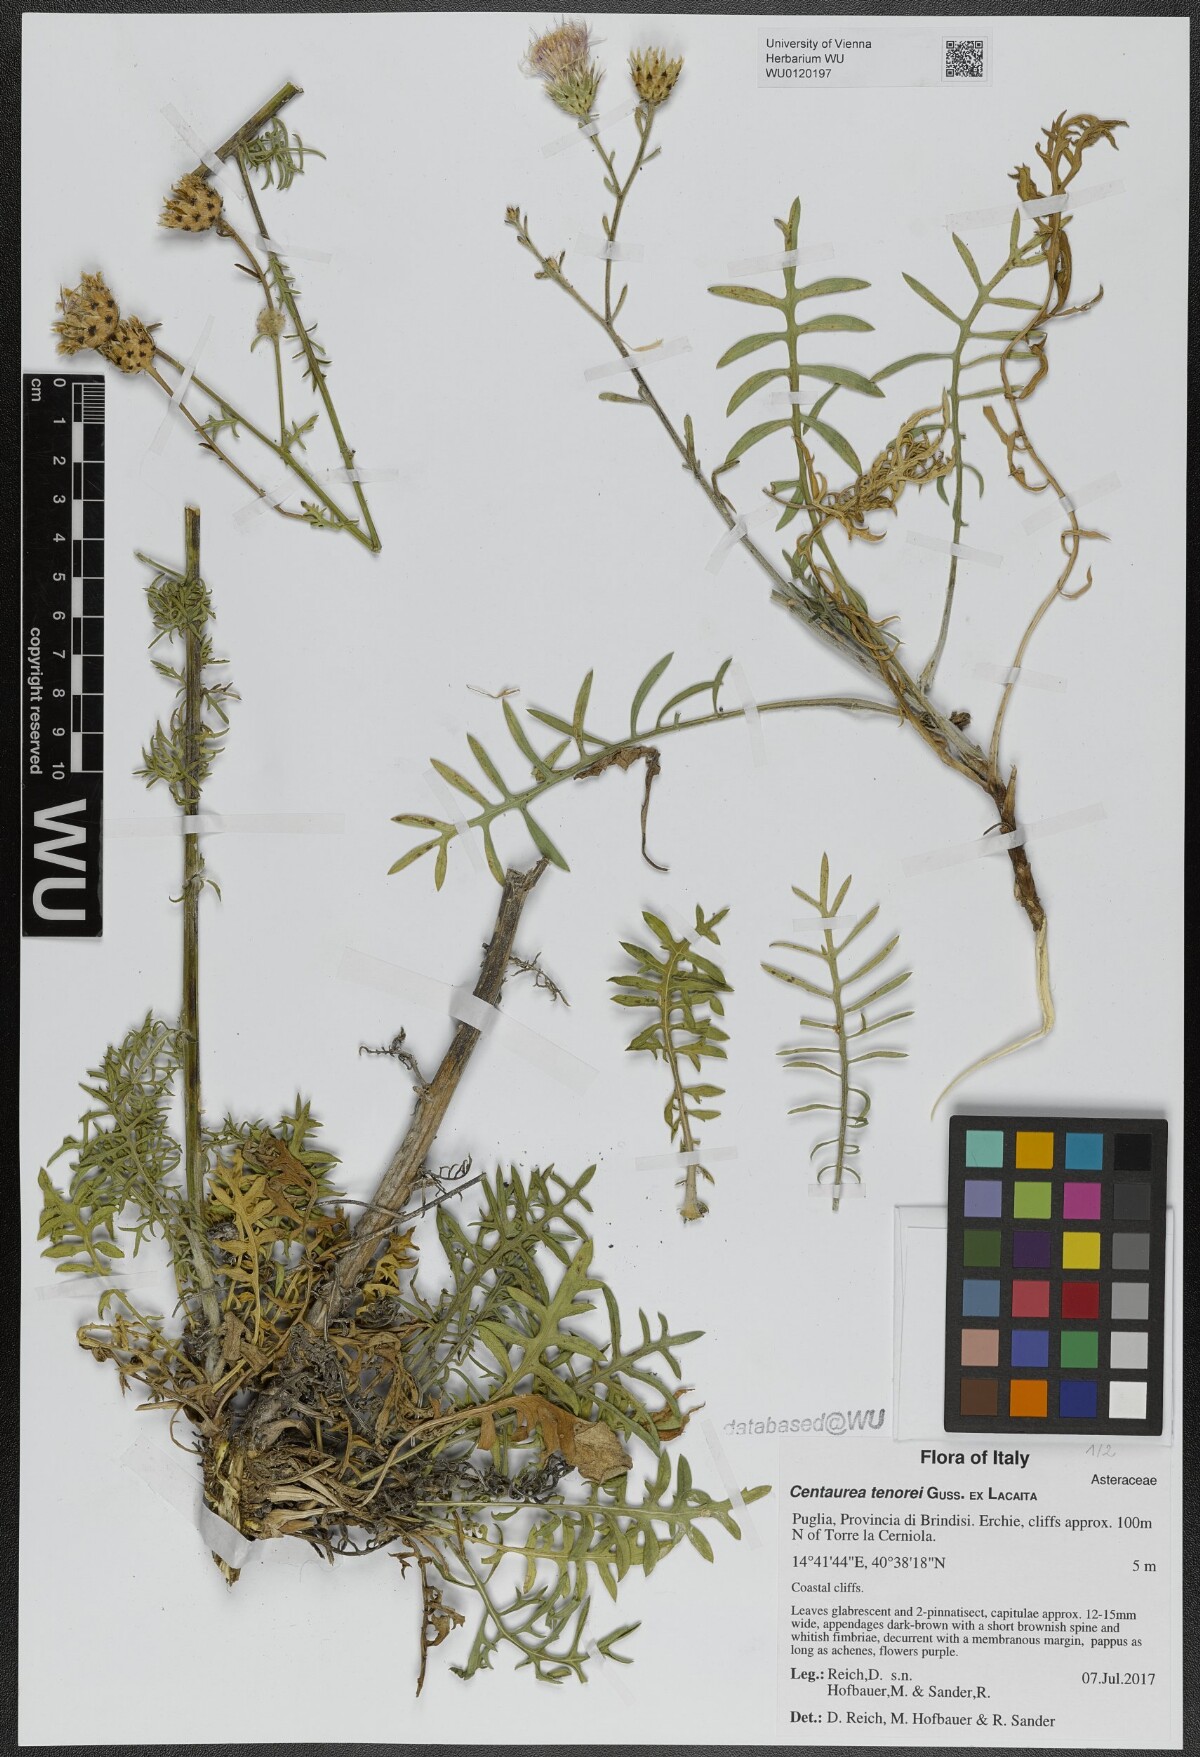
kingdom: Plantae
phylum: Tracheophyta
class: Magnoliopsida
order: Asterales
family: Asteraceae
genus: Centaurea
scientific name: Centaurea tenorei
